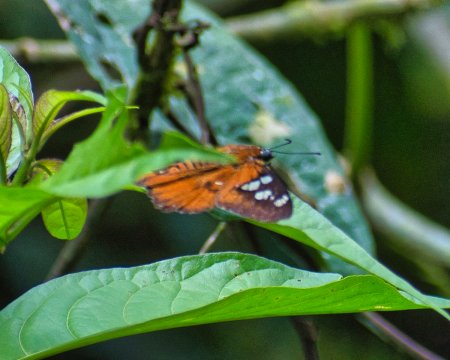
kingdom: Animalia
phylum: Arthropoda
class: Insecta
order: Lepidoptera
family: Hesperiidae
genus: Myscelus
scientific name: Myscelus belti
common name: Belt's Myscelus
